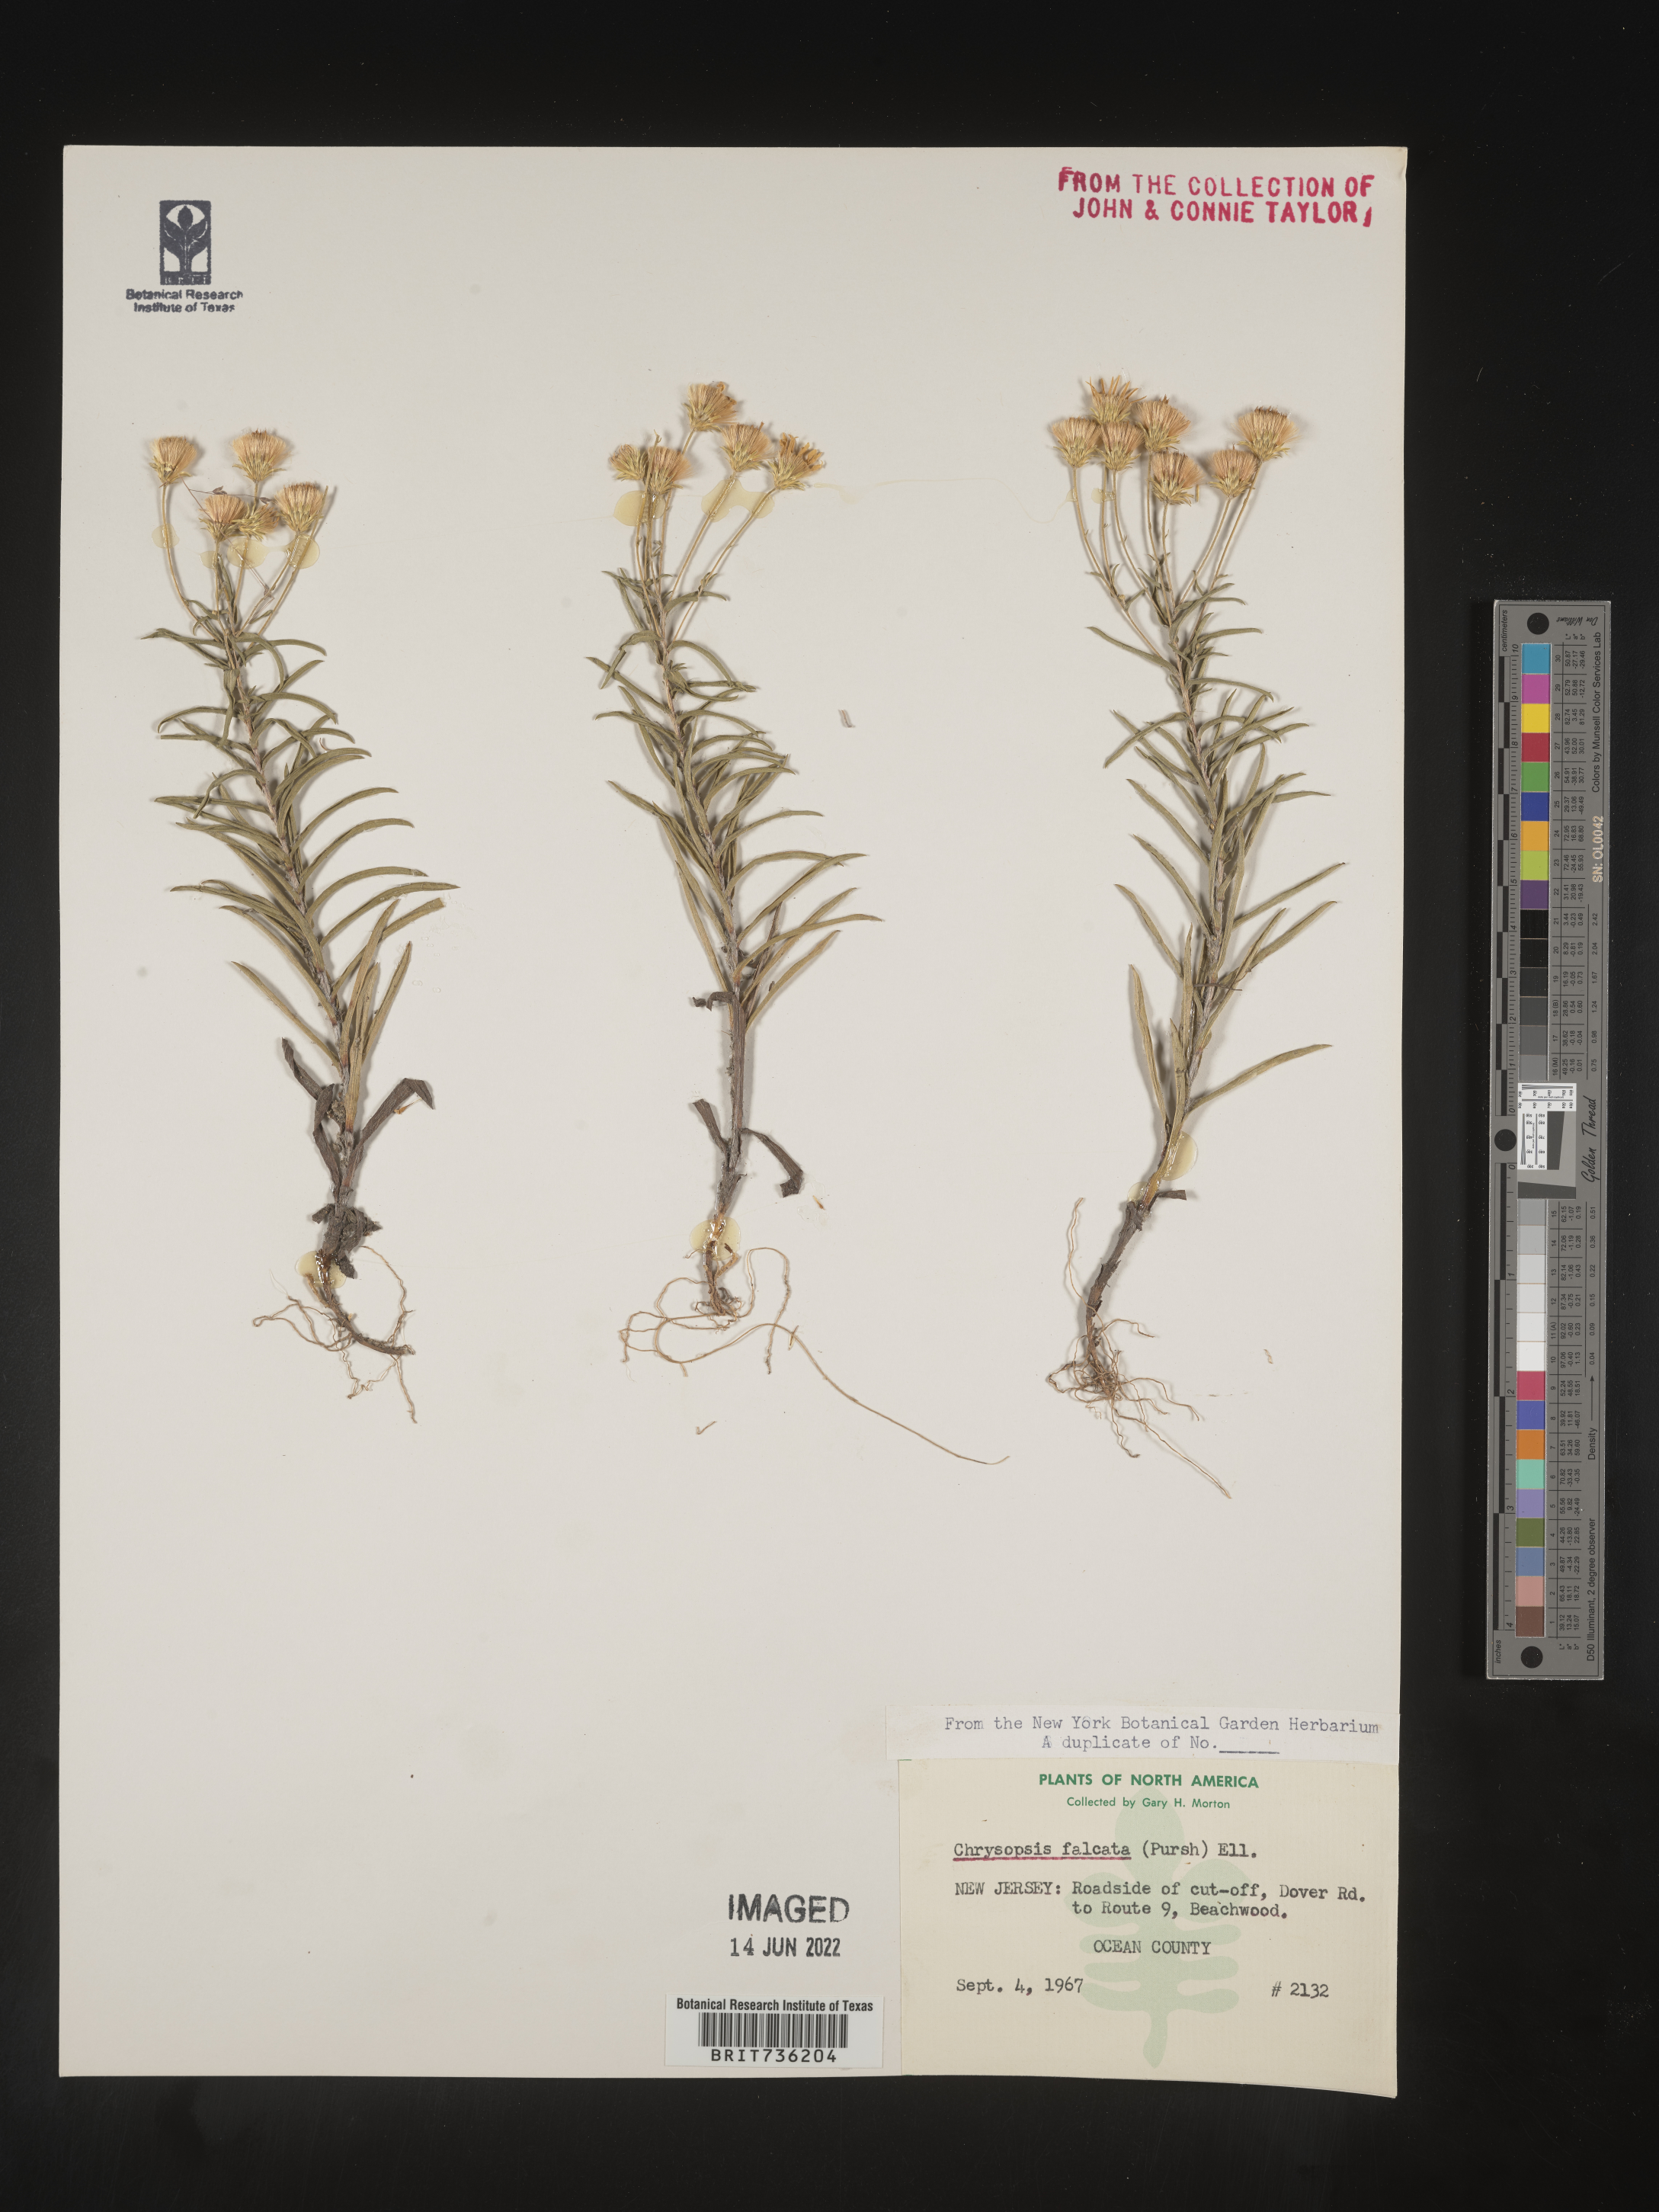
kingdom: Plantae
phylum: Tracheophyta
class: Magnoliopsida
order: Asterales
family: Asteraceae
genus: Pityopsis
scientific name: Pityopsis falcata
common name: Sickle-leaved goldenaster
